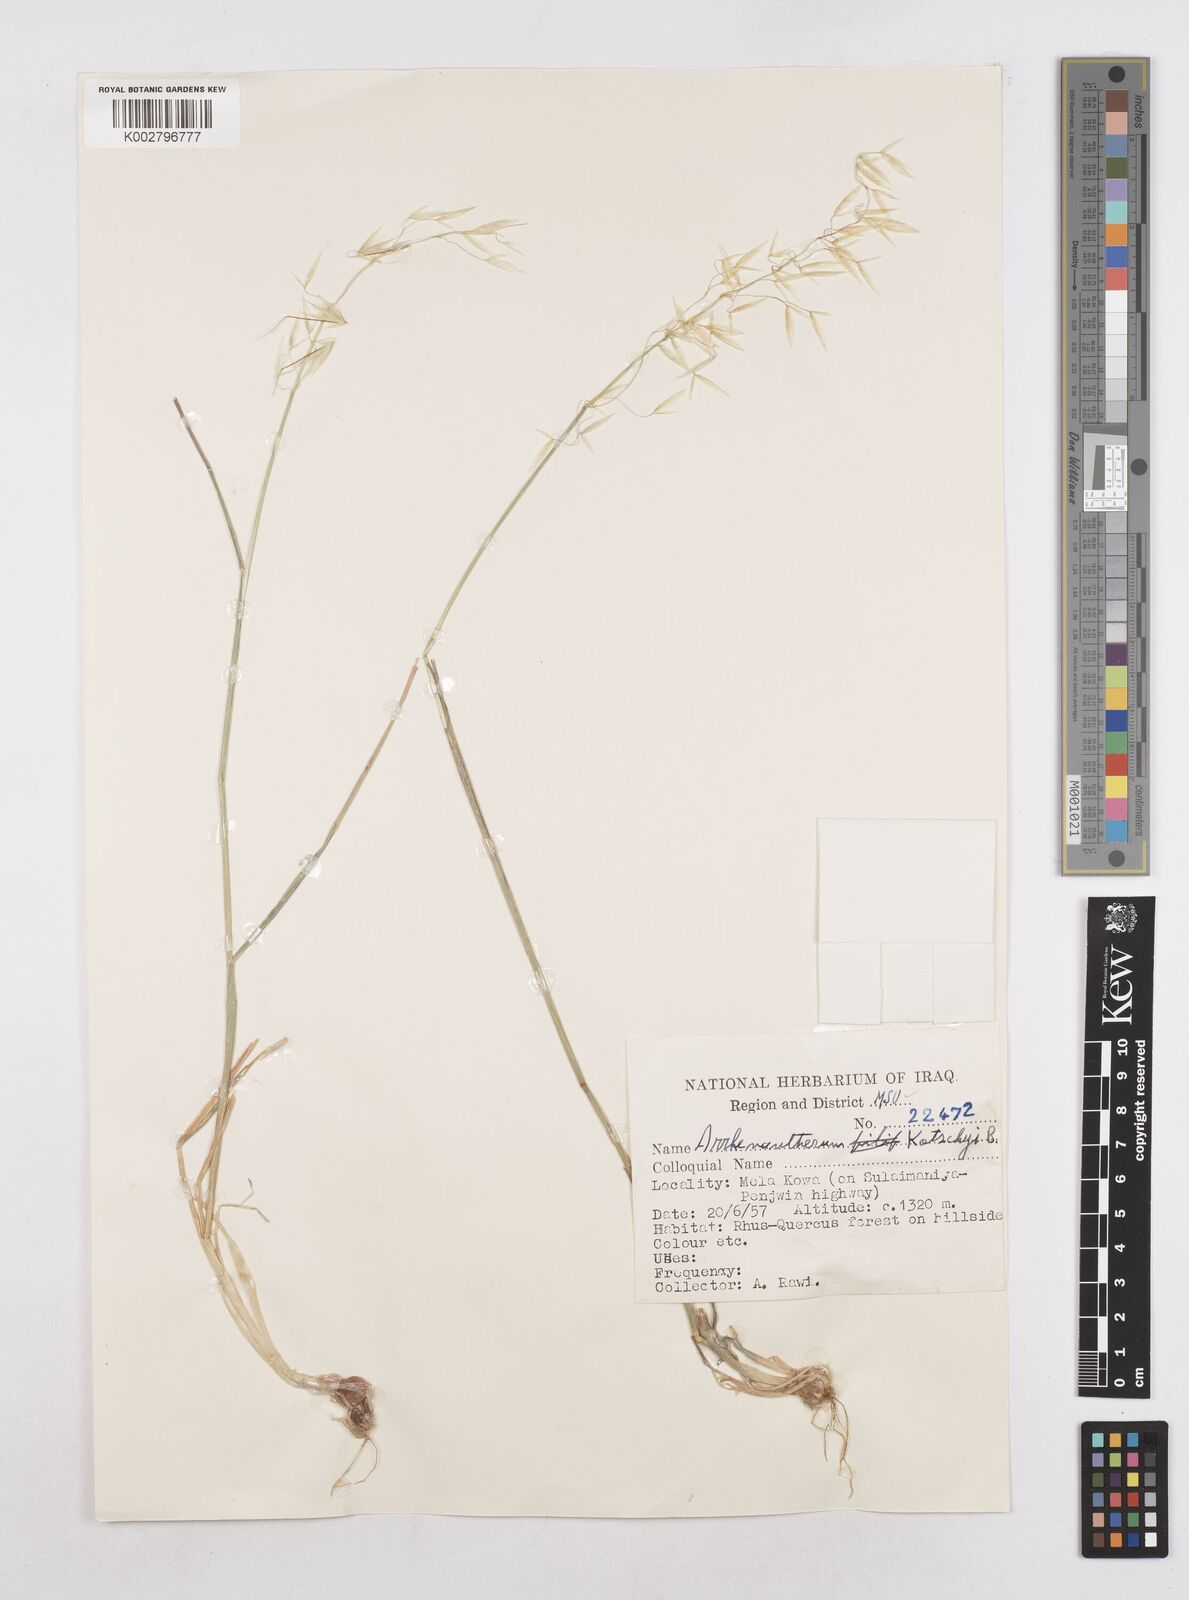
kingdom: Plantae
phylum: Tracheophyta
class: Liliopsida
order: Poales
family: Poaceae
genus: Arrhenatherum
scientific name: Arrhenatherum kotschyi
